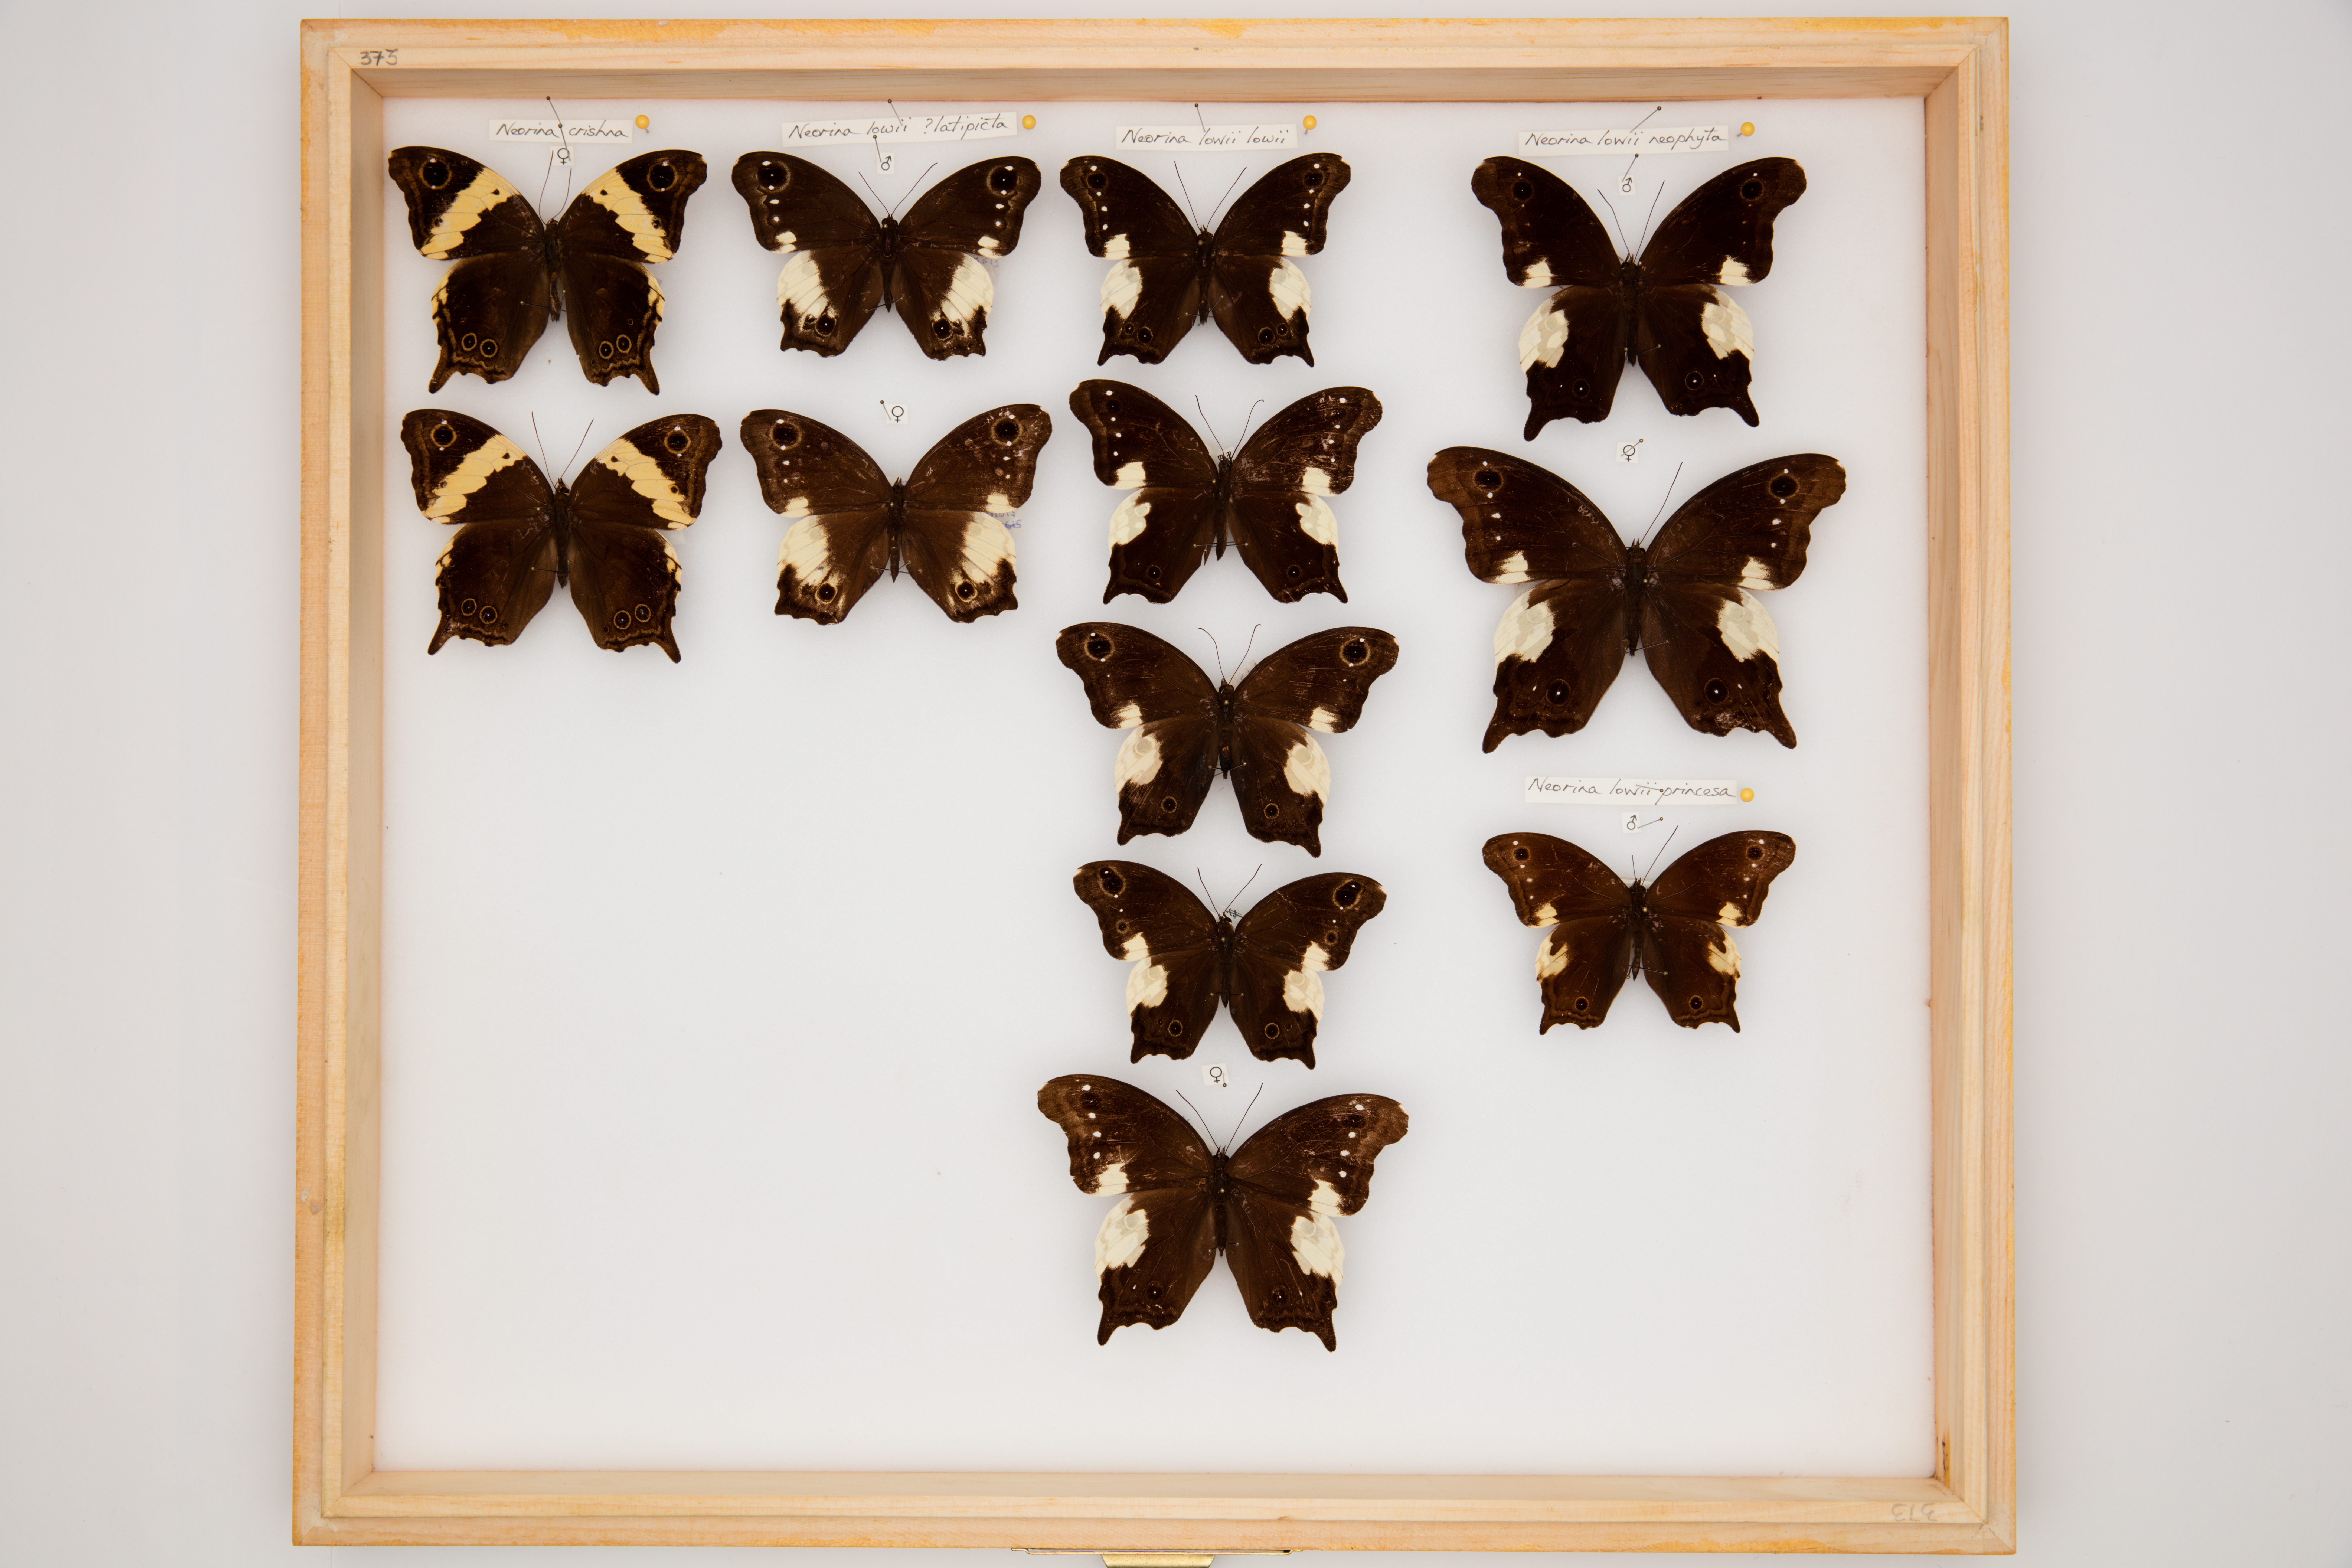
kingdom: Animalia
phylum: Arthropoda
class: Insecta
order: Lepidoptera
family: Nymphalidae
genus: Neorina
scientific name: Neorina lowii
